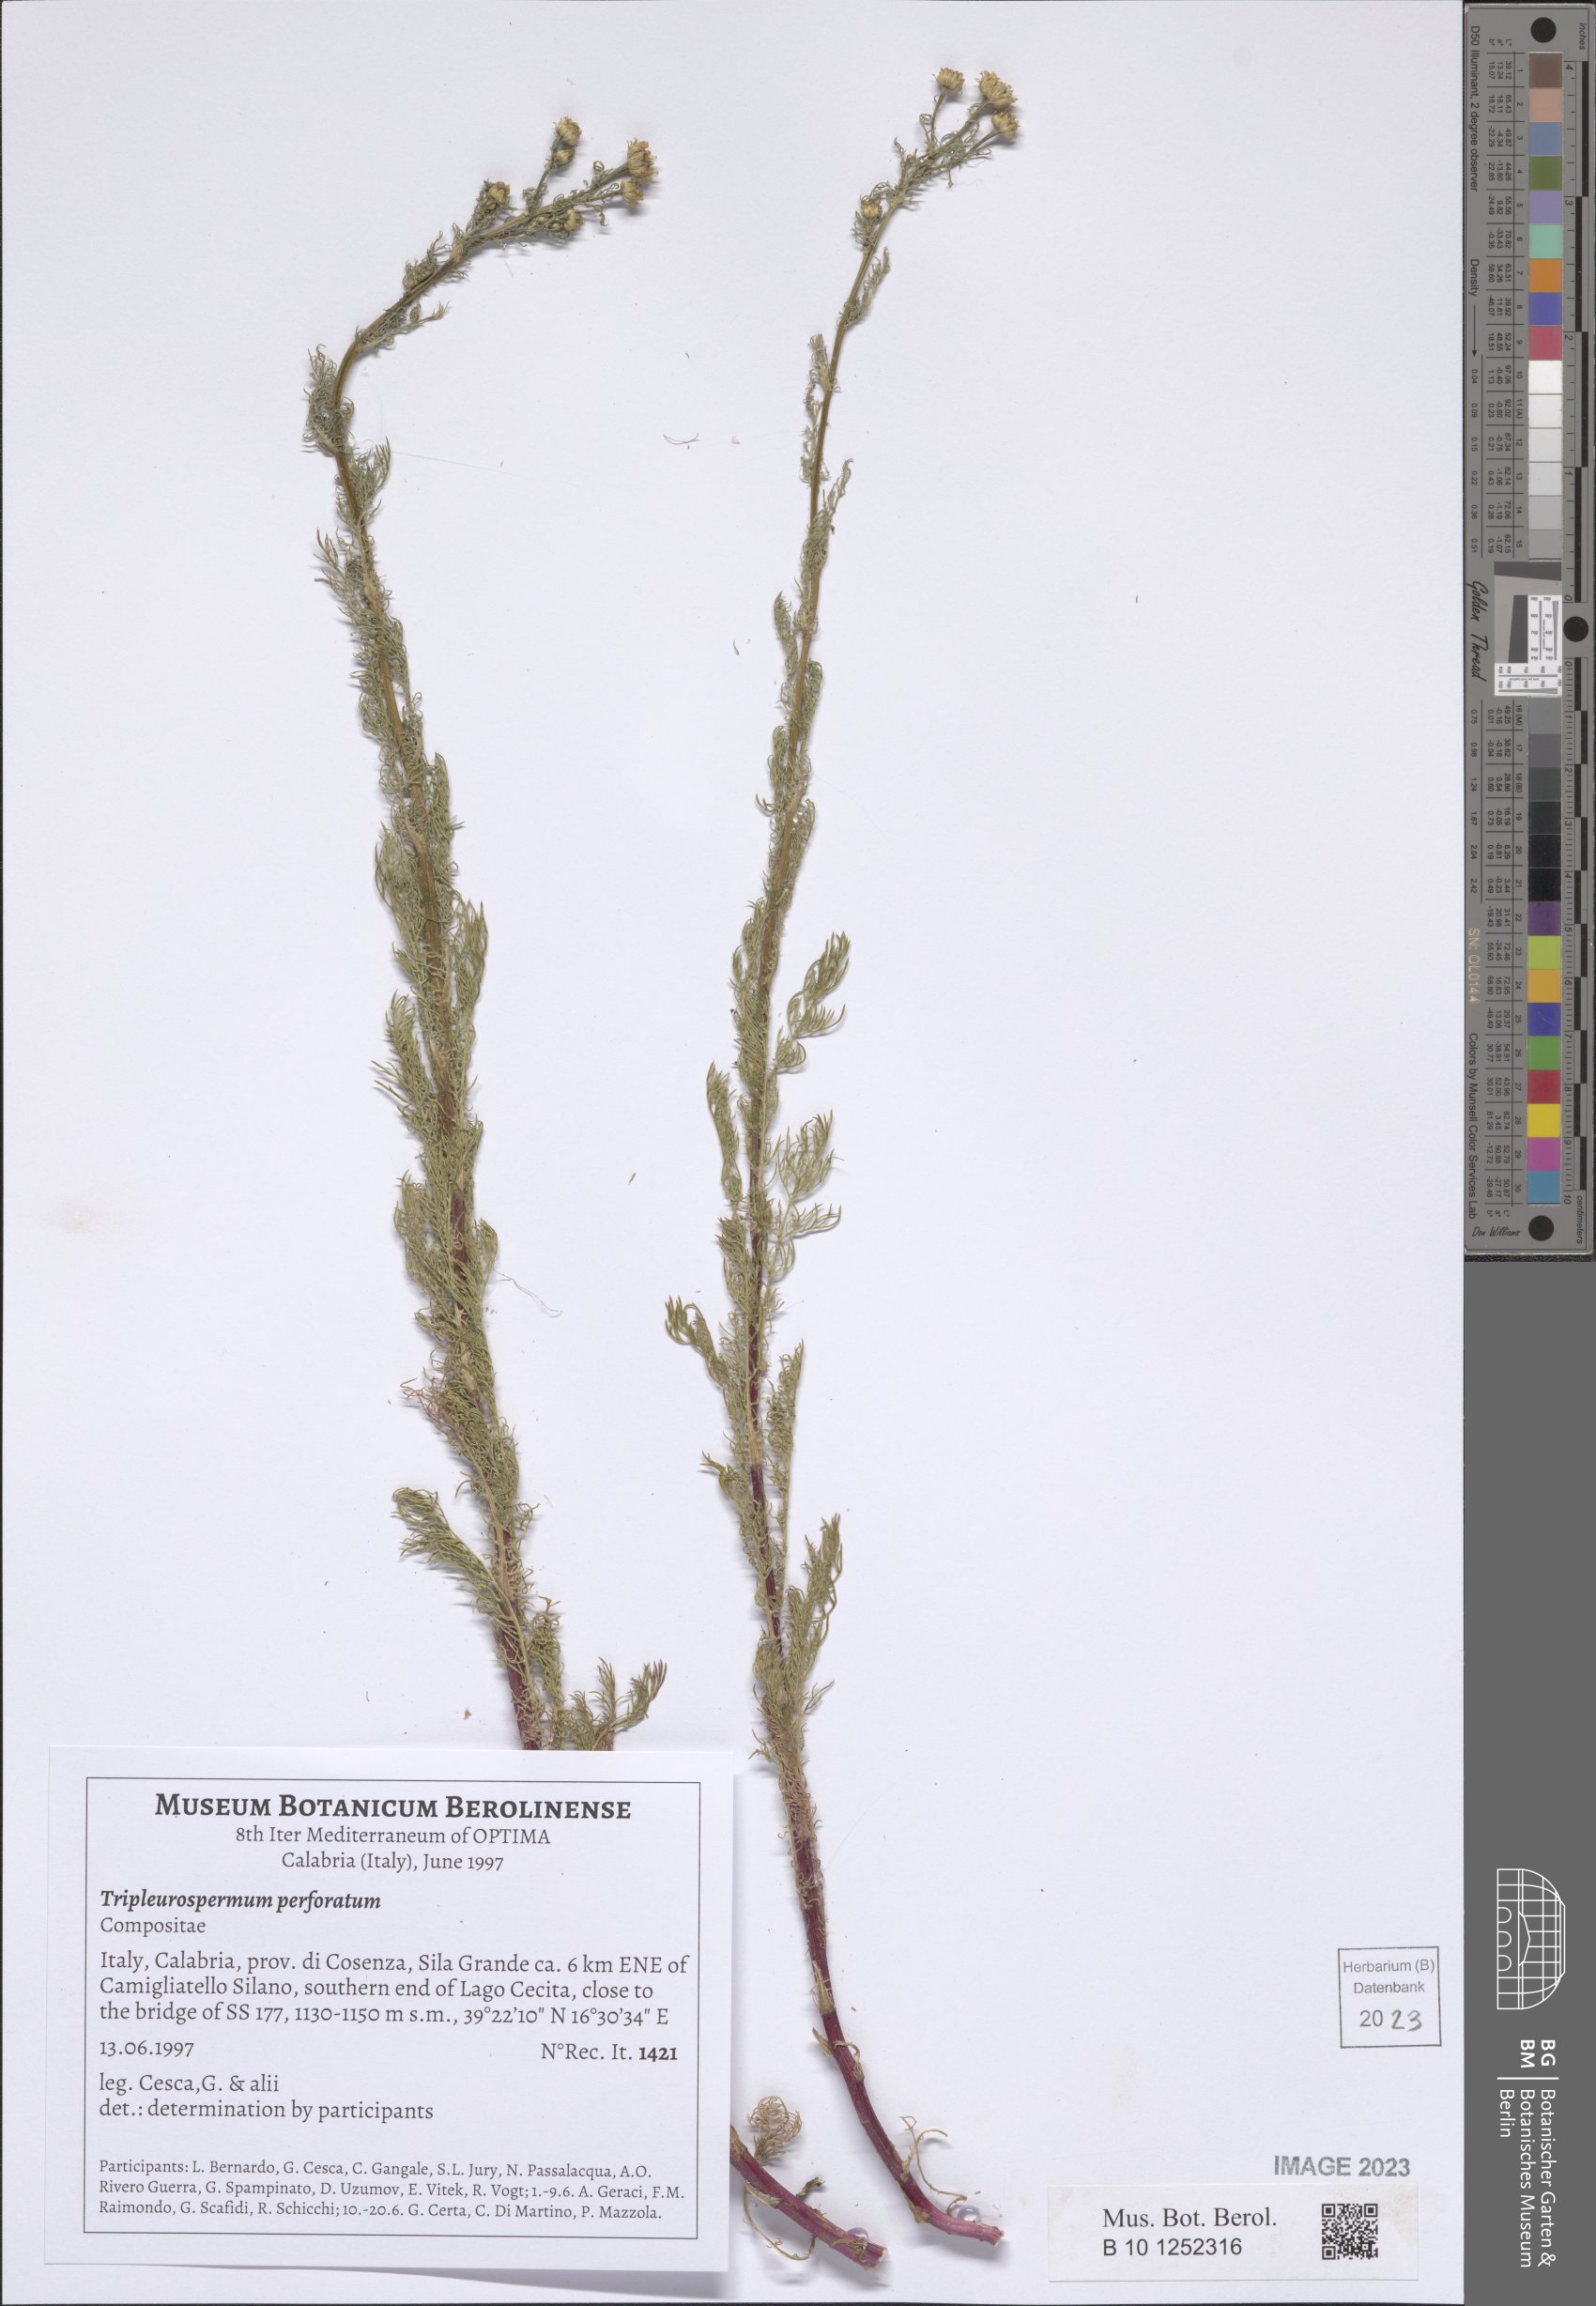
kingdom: Plantae
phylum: Tracheophyta
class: Magnoliopsida
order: Asterales
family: Asteraceae
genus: Tripleurospermum
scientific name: Tripleurospermum inodorum
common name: Scentless mayweed
